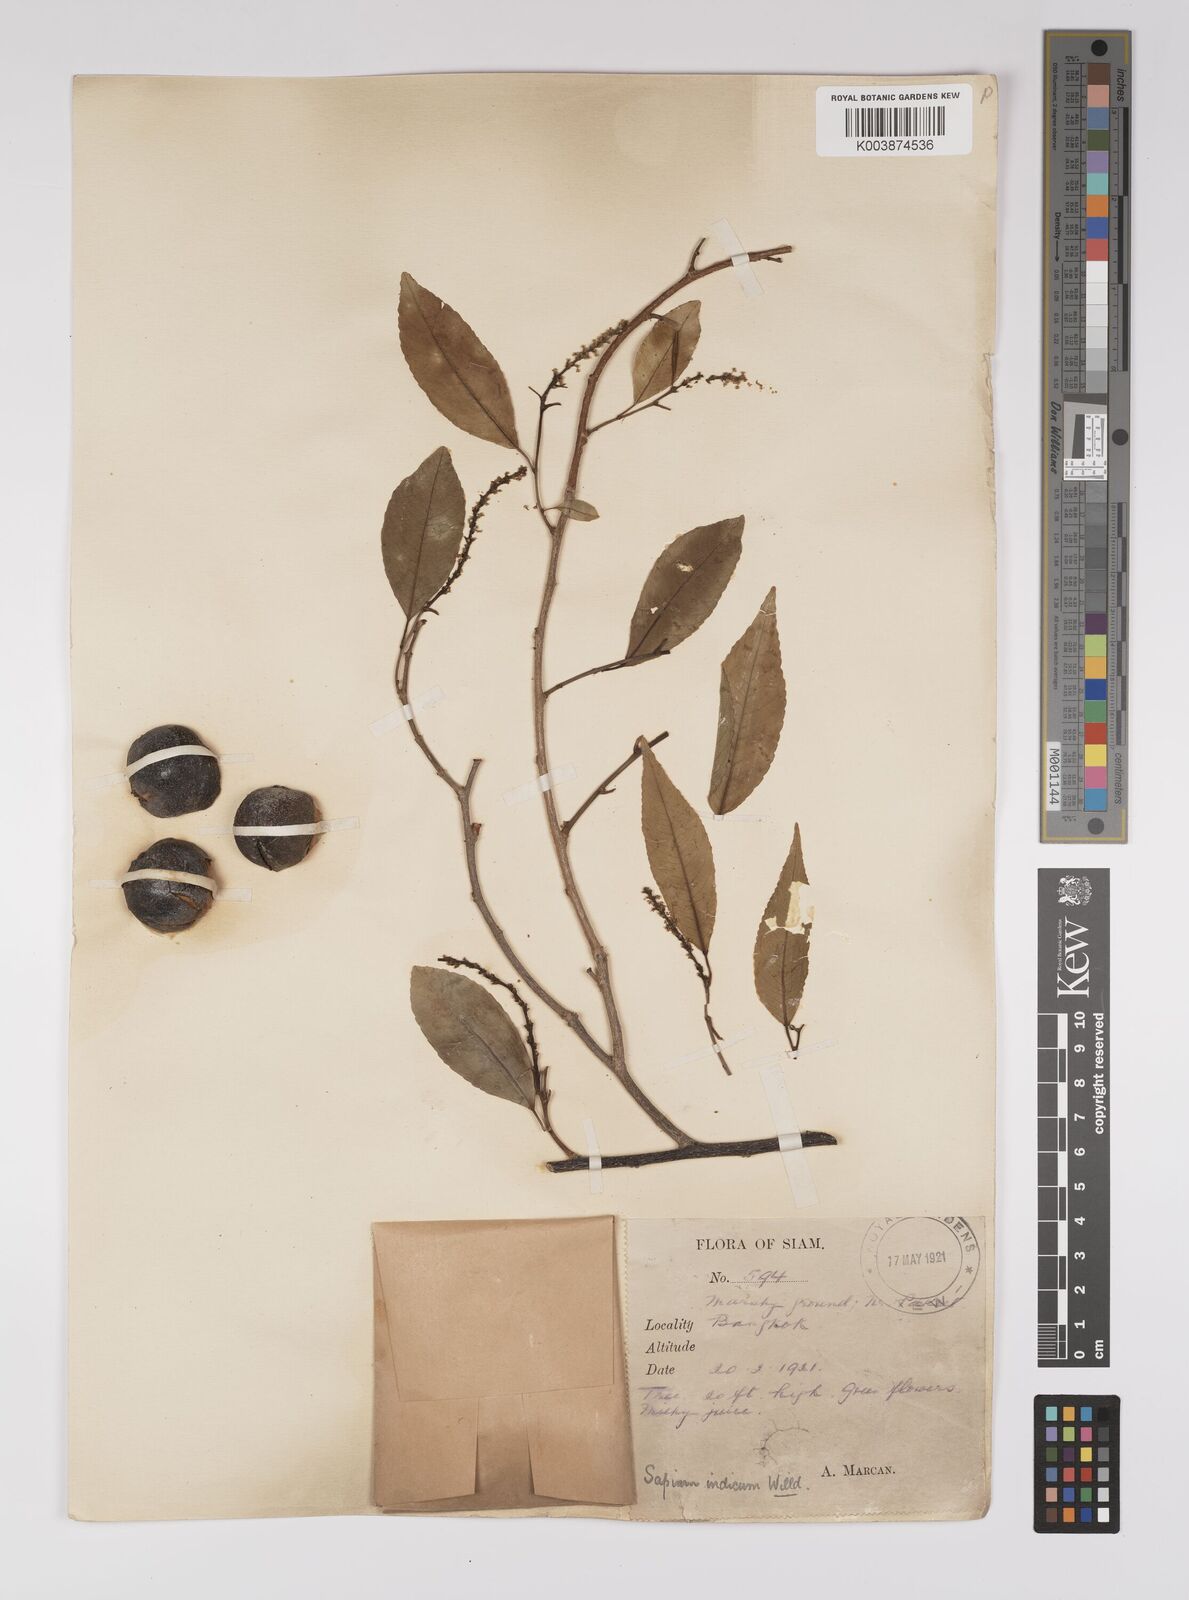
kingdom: Plantae
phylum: Tracheophyta
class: Magnoliopsida
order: Malpighiales
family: Euphorbiaceae
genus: Shirakiopsis
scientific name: Shirakiopsis indica
